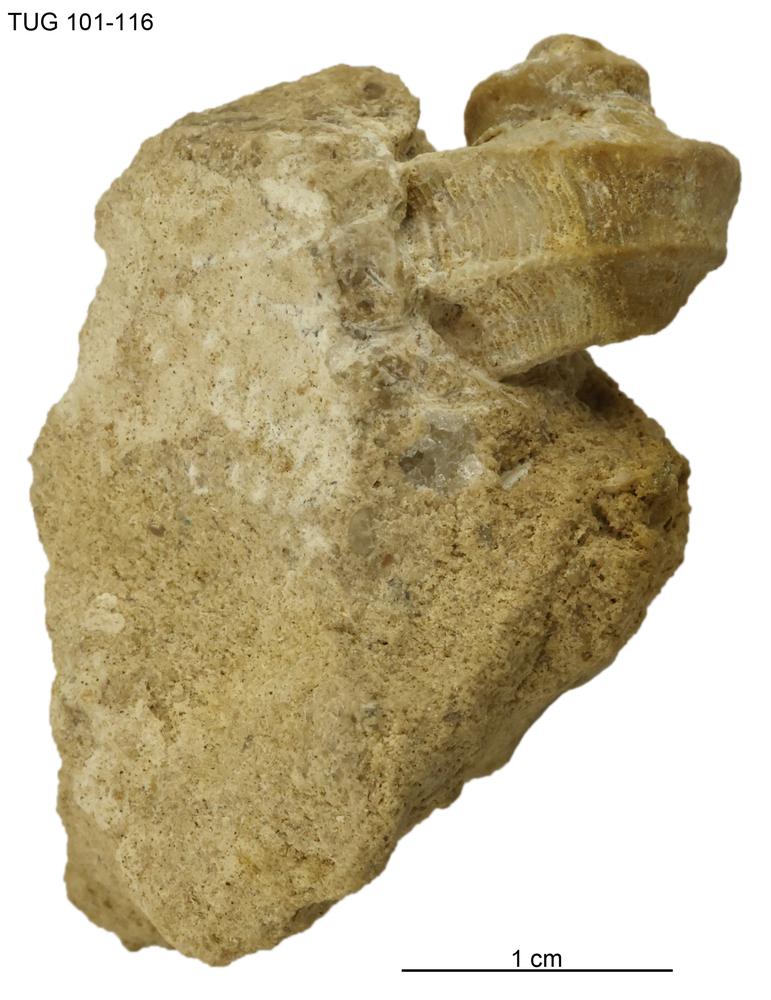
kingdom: Animalia
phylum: Mollusca
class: Gastropoda
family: Trochonematidae
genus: Trochonema
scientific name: Trochonema panderi
